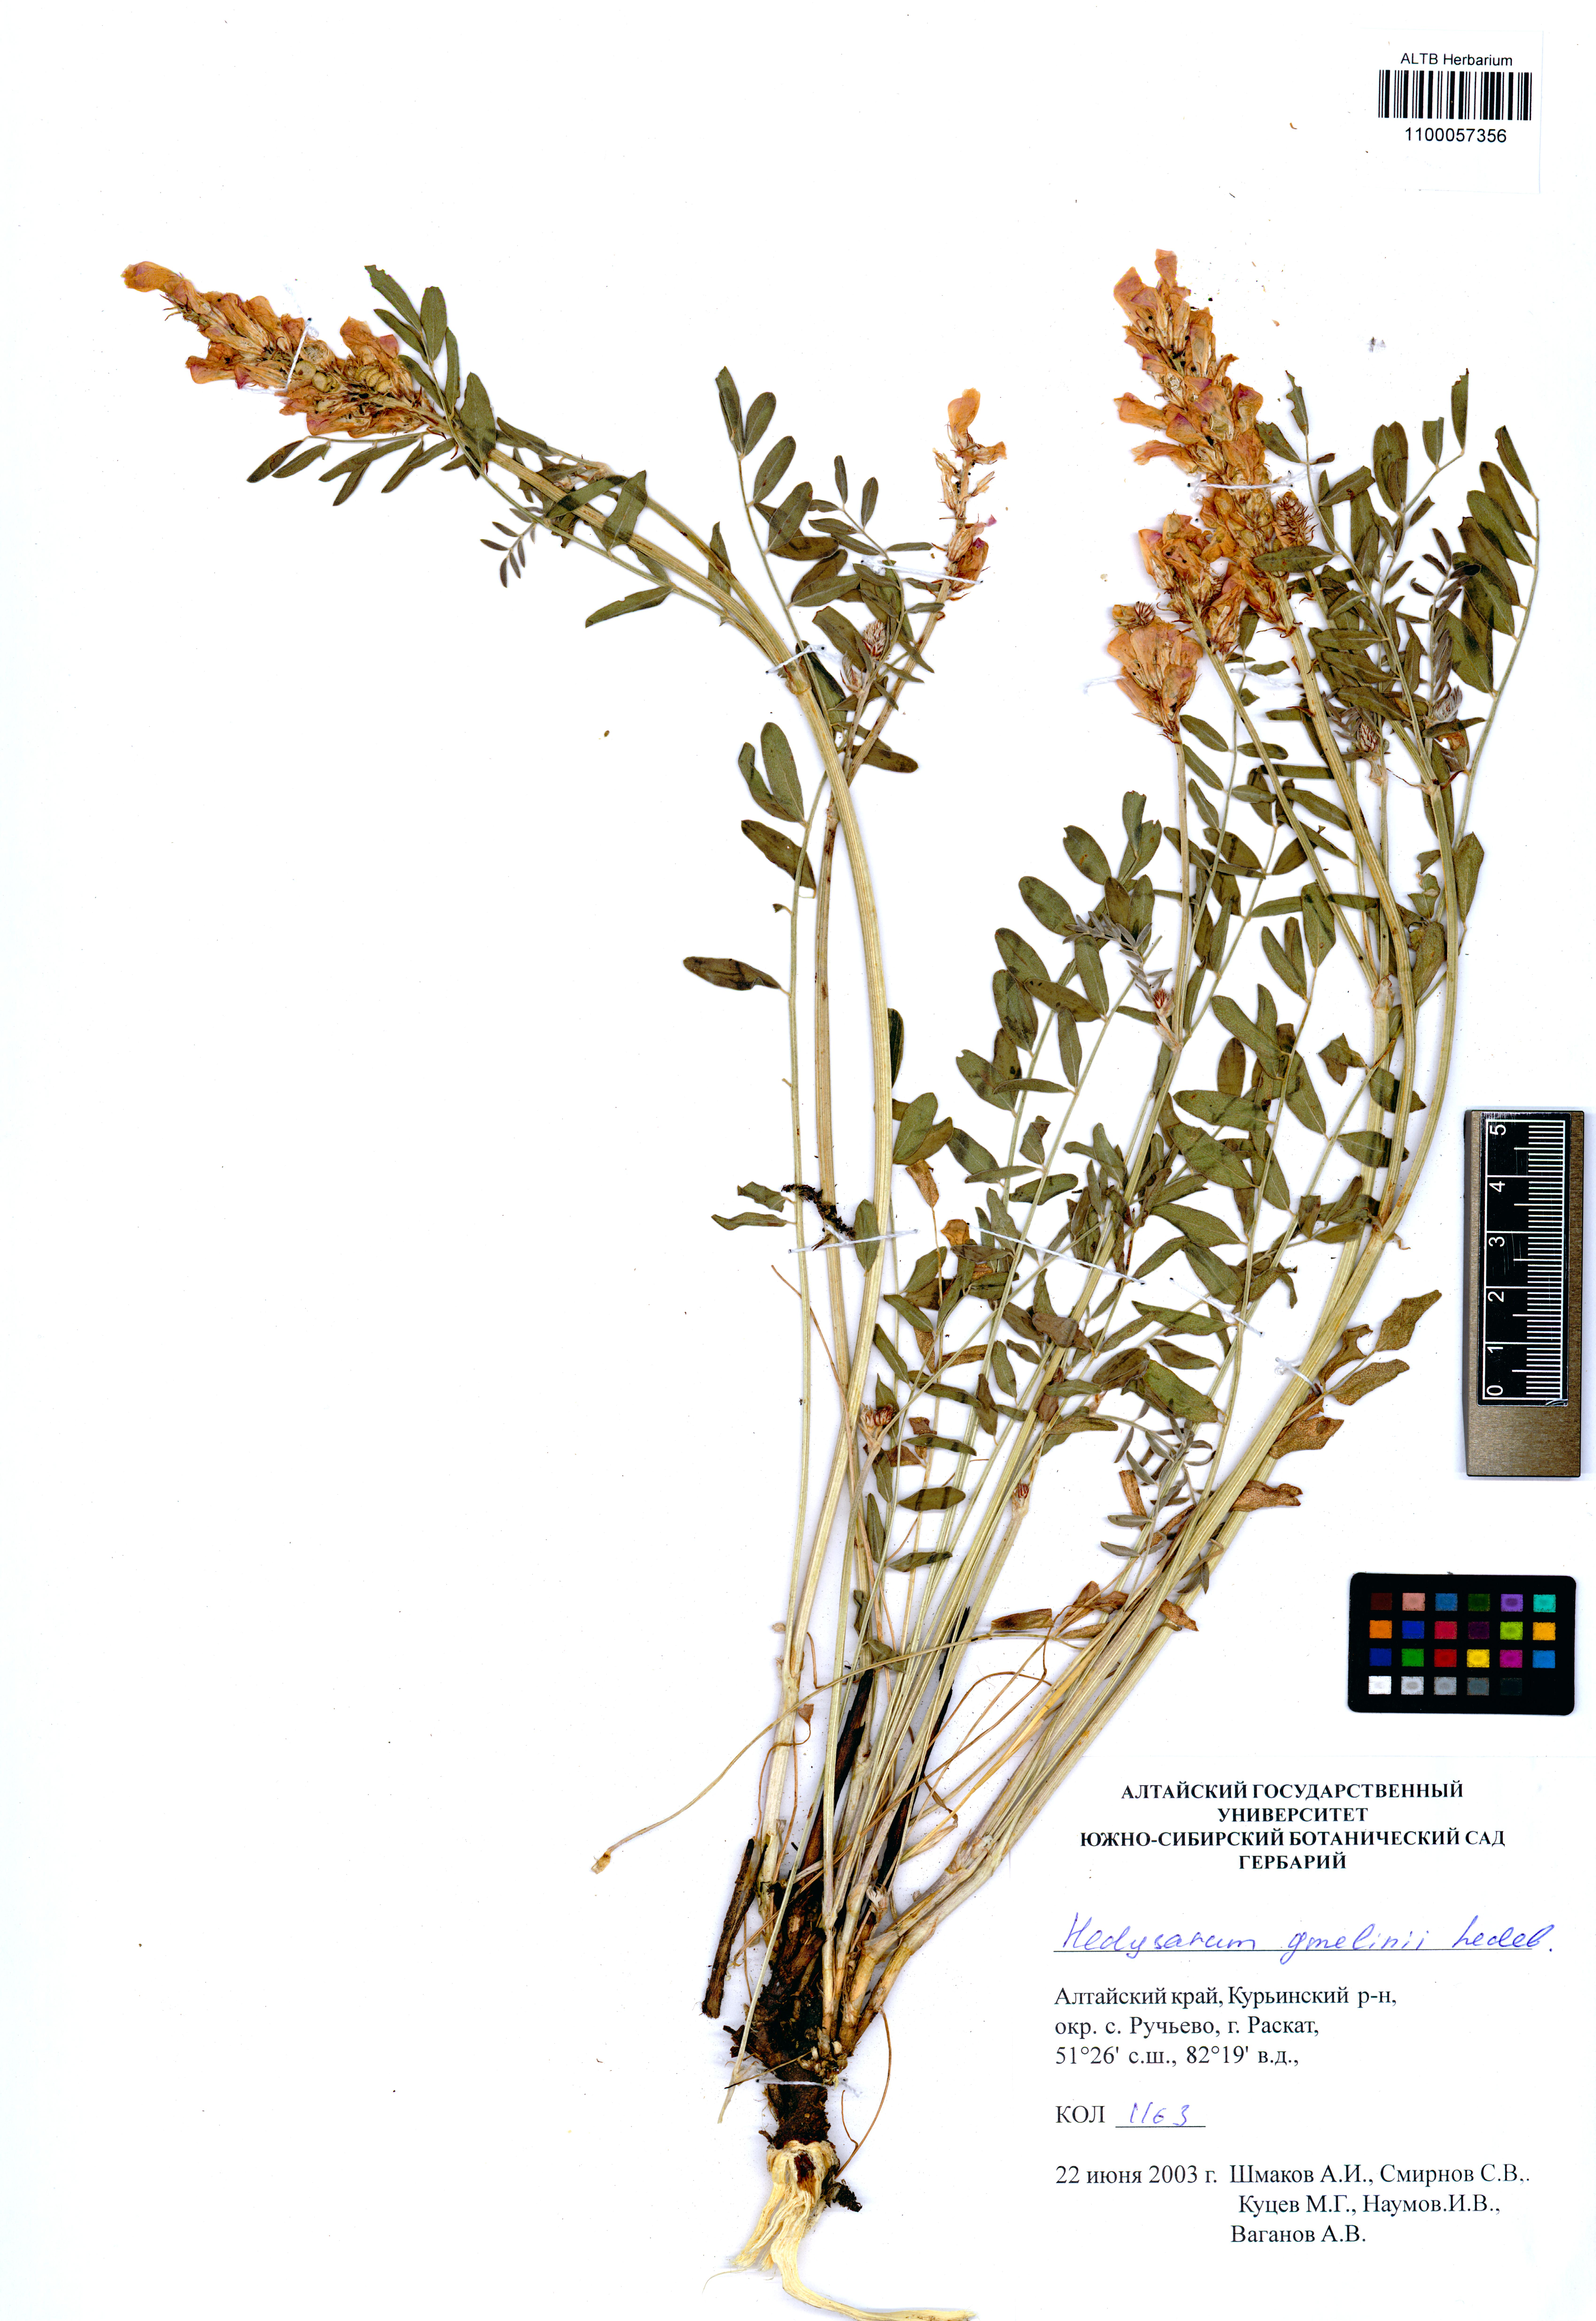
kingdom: Plantae
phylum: Tracheophyta
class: Magnoliopsida
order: Fabales
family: Fabaceae
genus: Hedysarum
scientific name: Hedysarum gmelinii
